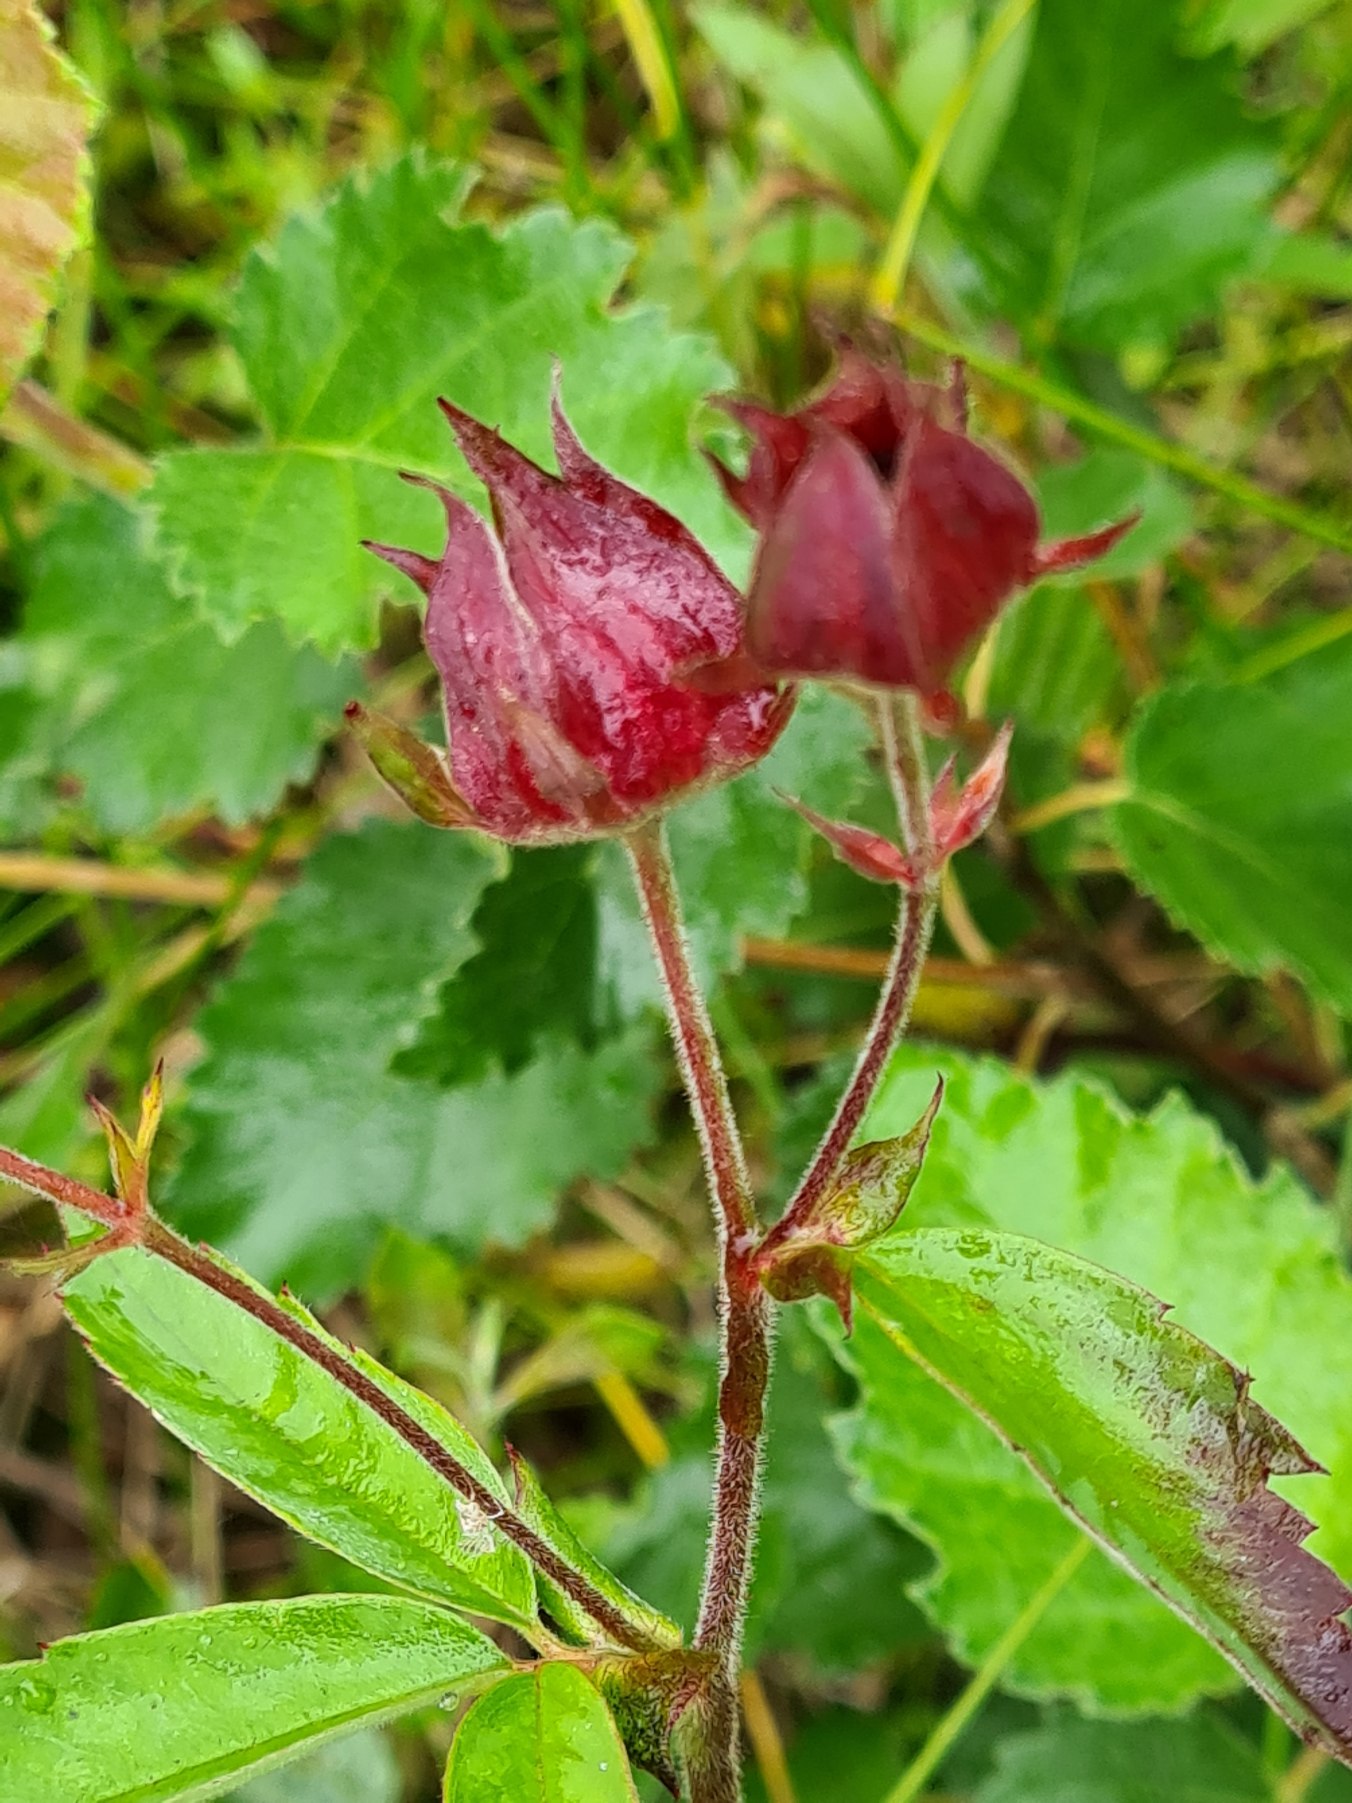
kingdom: Plantae
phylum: Tracheophyta
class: Magnoliopsida
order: Rosales
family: Rosaceae
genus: Comarum
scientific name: Comarum palustre
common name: Kragefod
